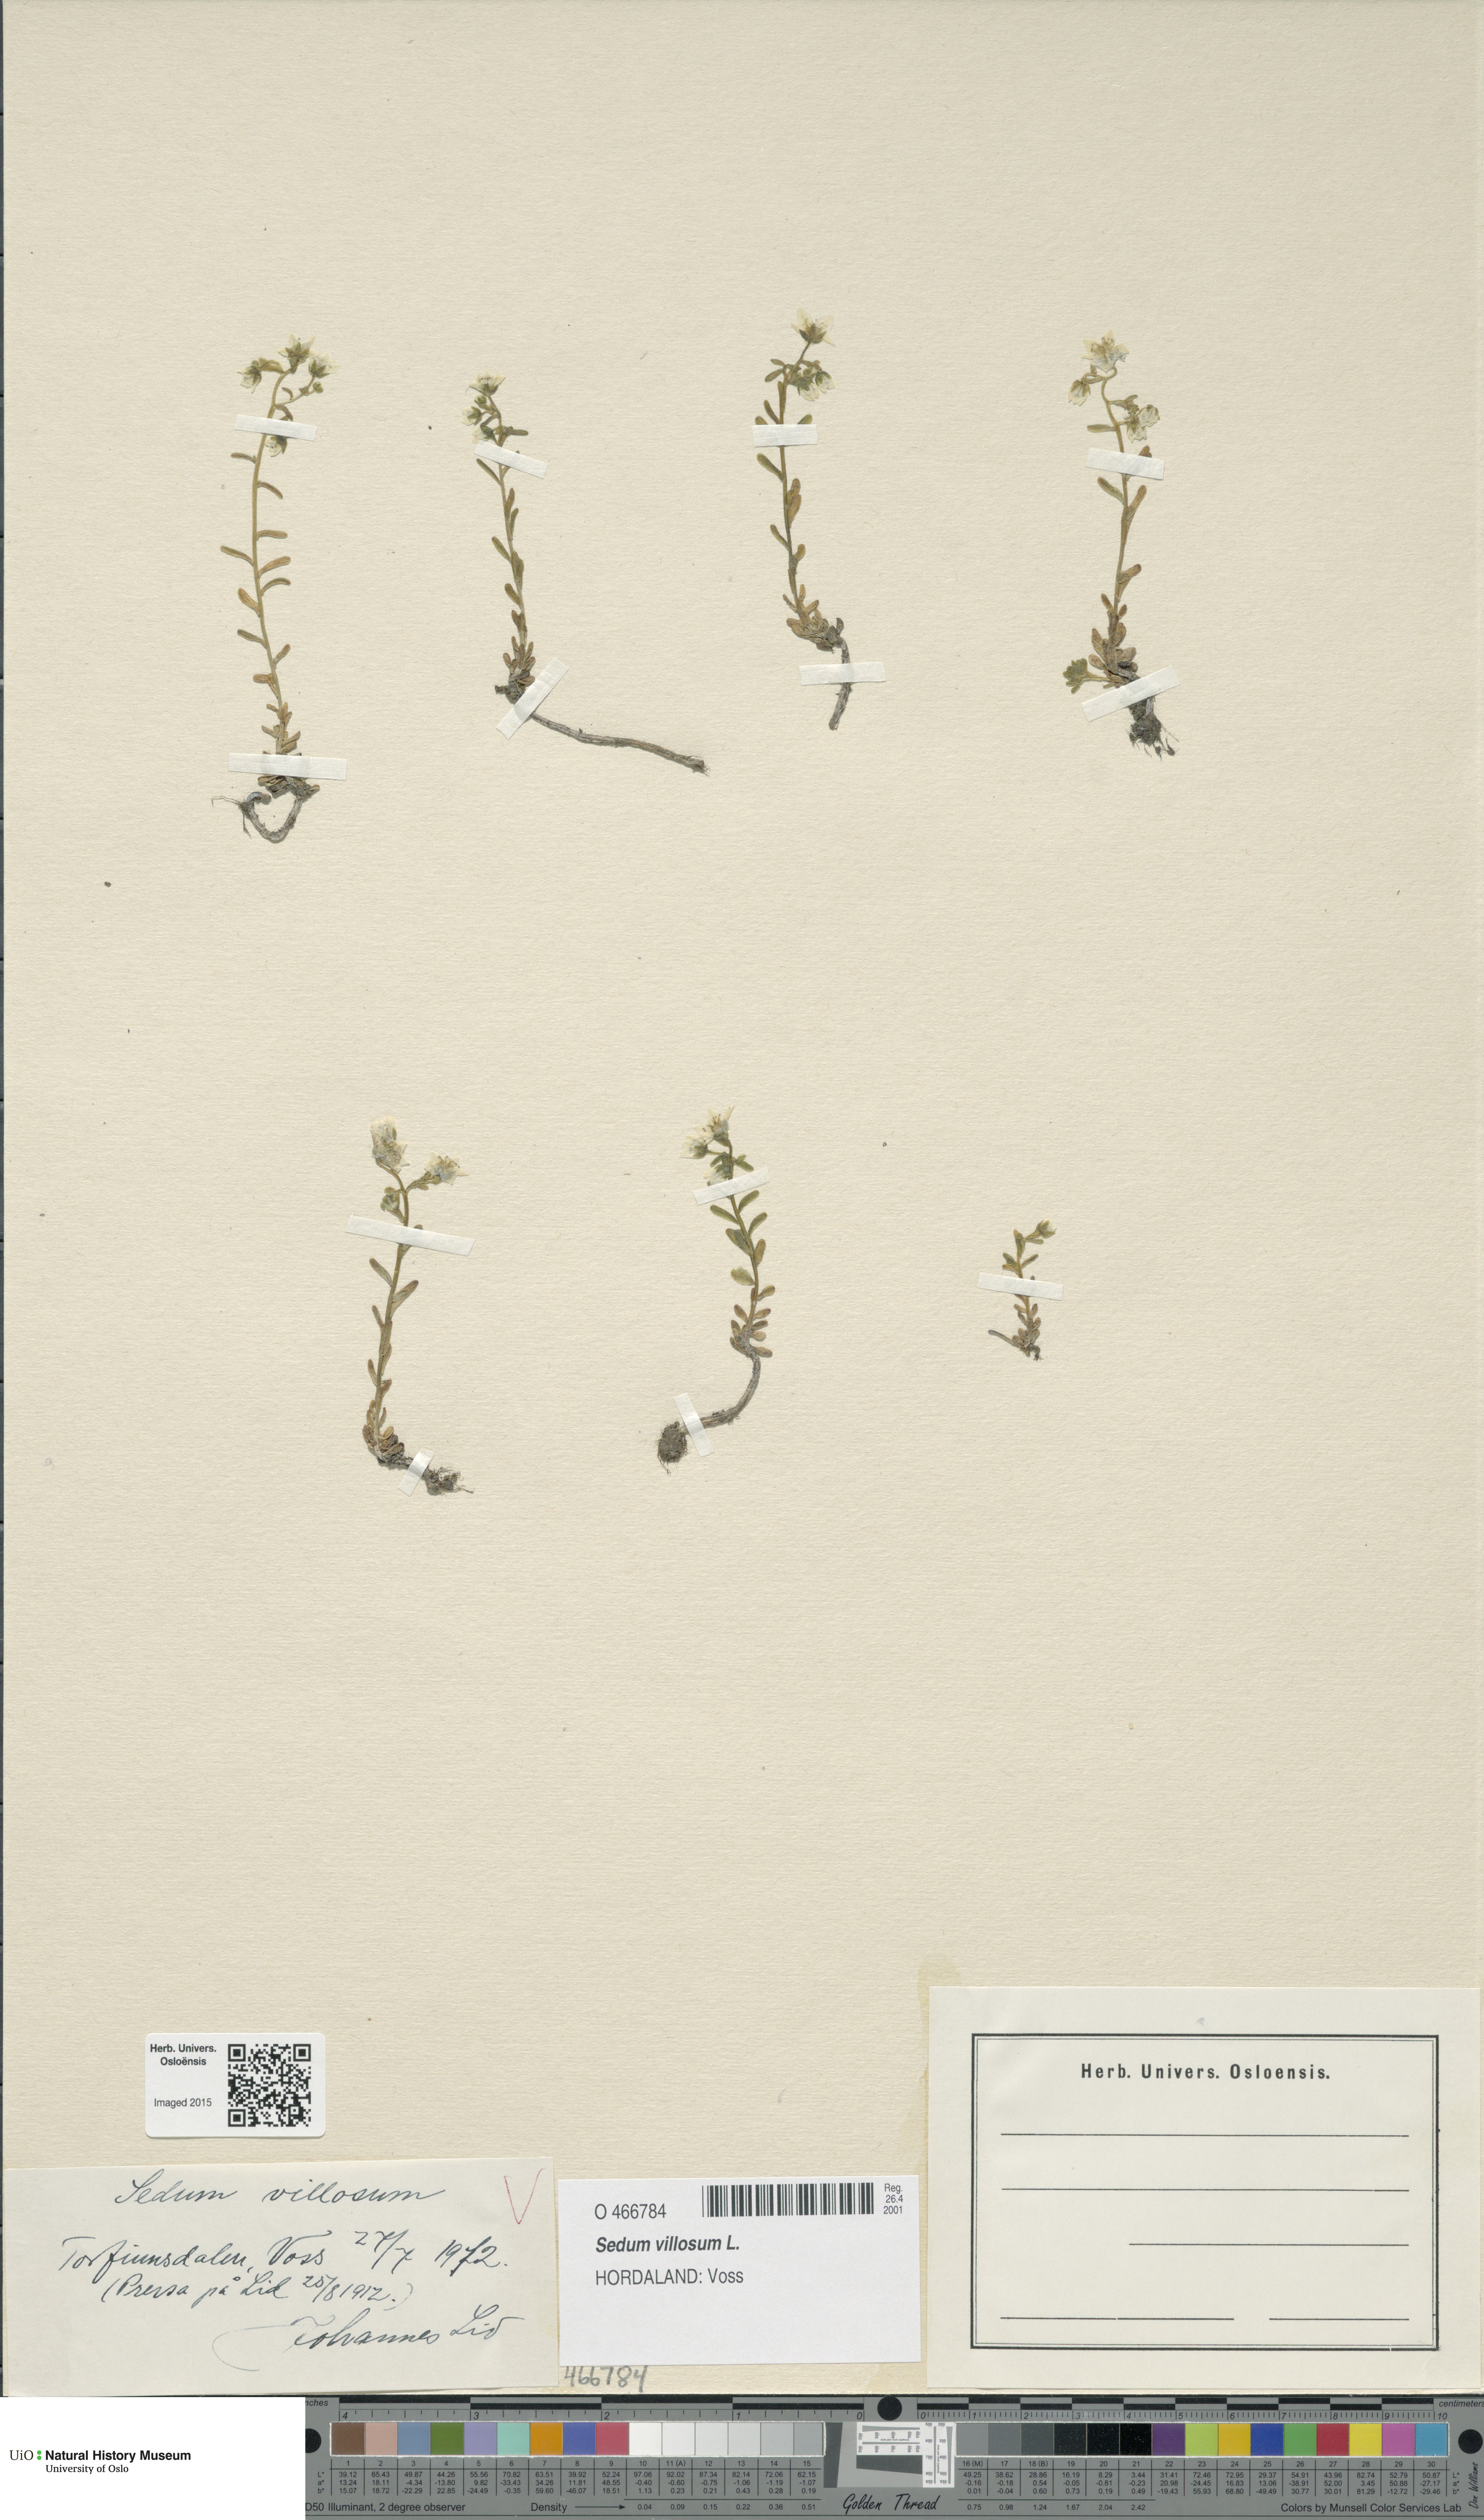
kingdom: Plantae
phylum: Tracheophyta
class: Magnoliopsida
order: Saxifragales
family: Crassulaceae
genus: Sedum
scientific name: Sedum villosum
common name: Hairy stonecrop
